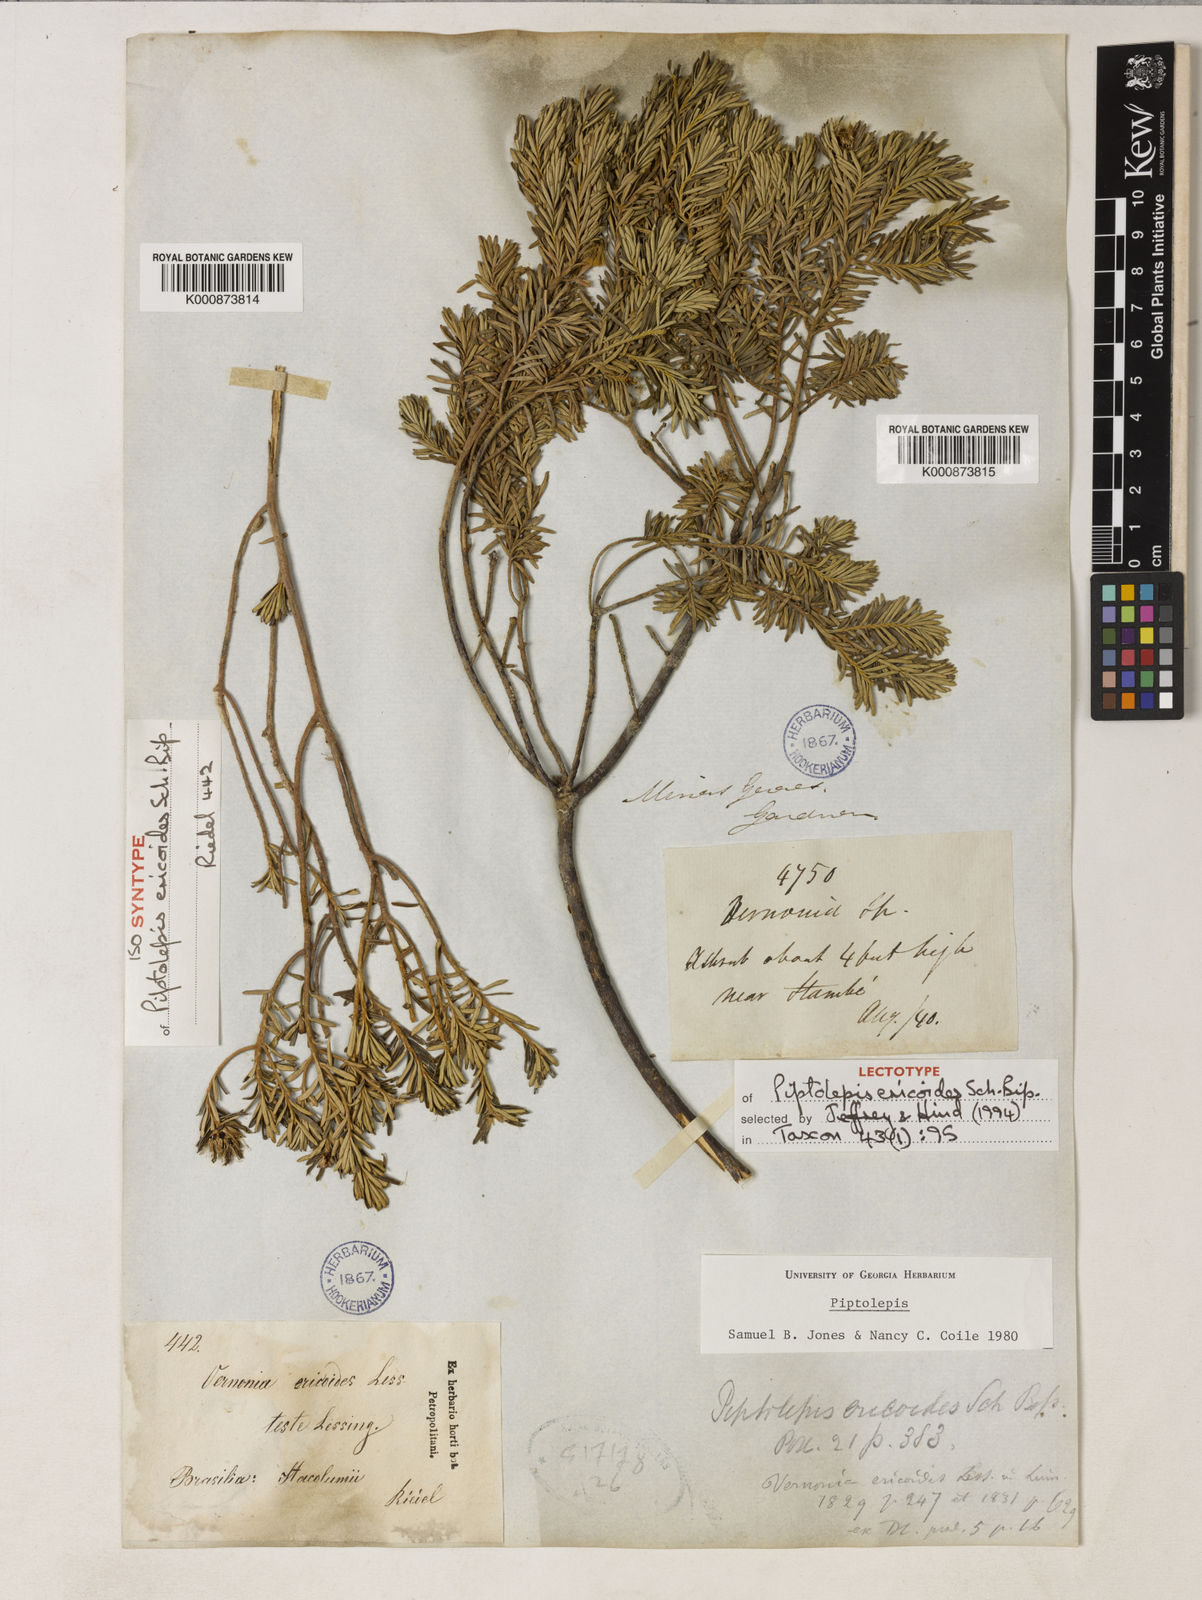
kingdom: Plantae
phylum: Tracheophyta
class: Magnoliopsida
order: Asterales
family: Asteraceae
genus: Piptolepis
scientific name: Piptolepis ericoides
